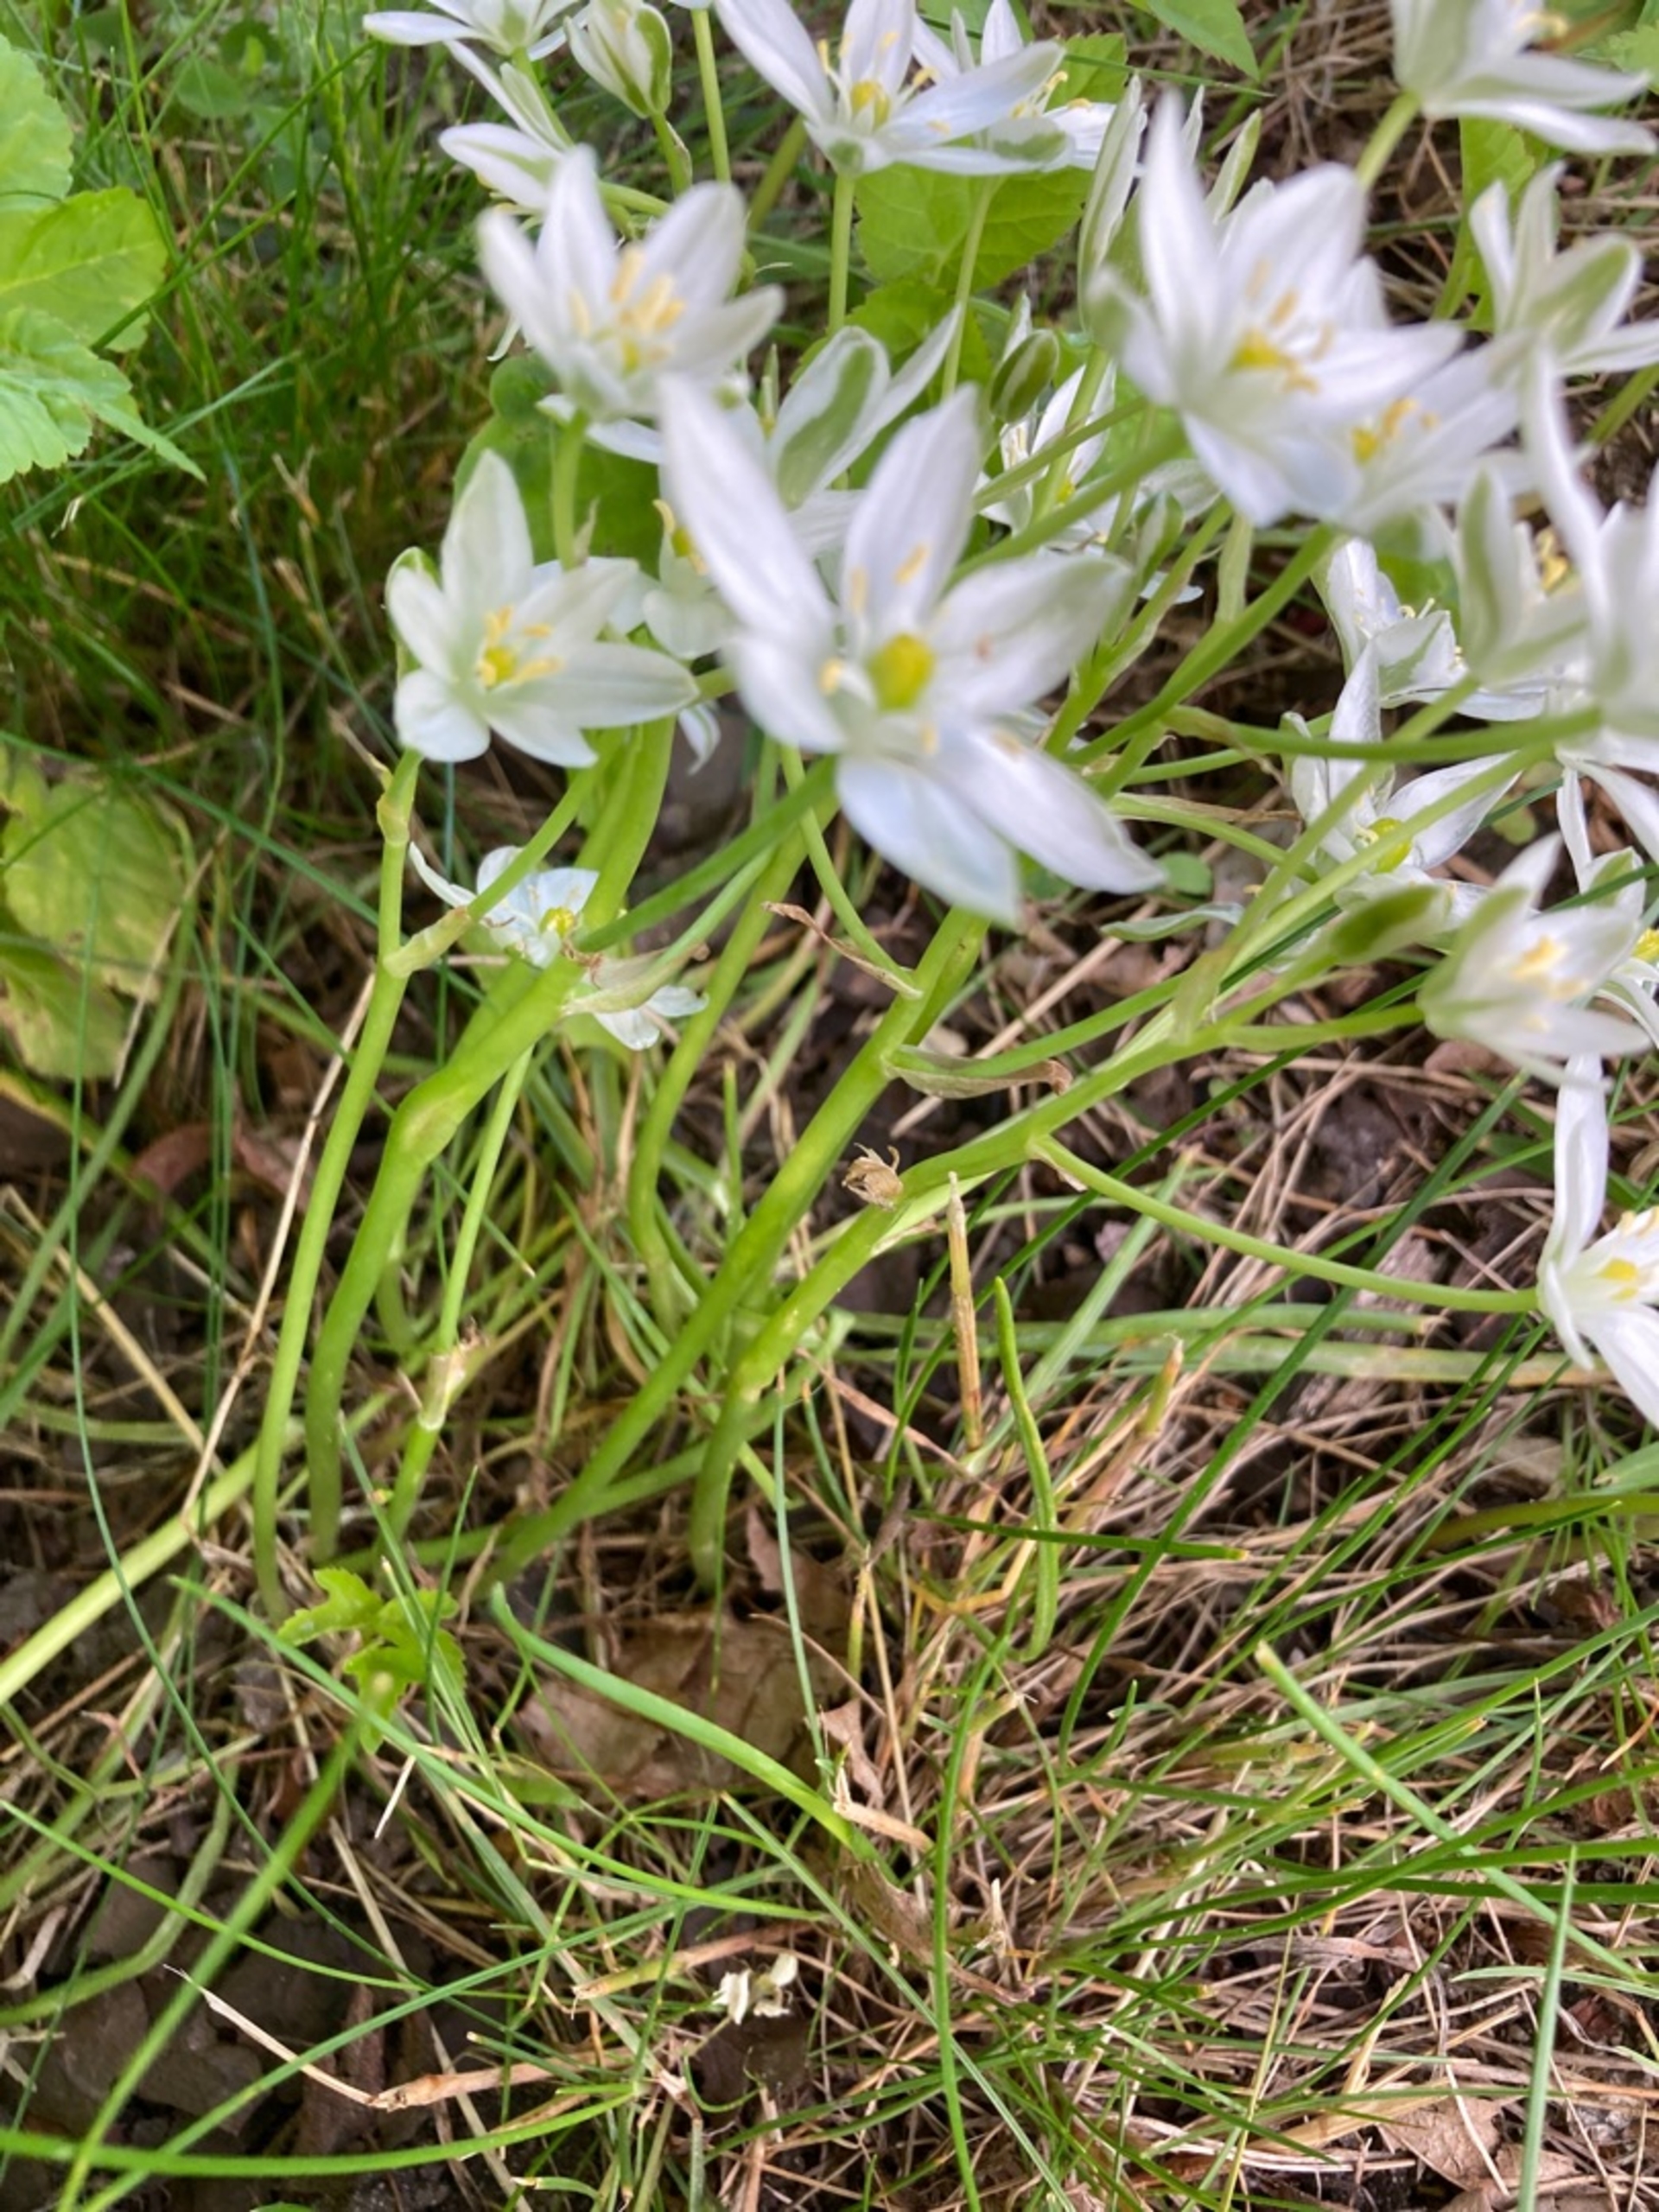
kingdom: Plantae
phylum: Tracheophyta
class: Liliopsida
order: Asparagales
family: Asparagaceae
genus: Ornithogalum
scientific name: Ornithogalum umbellatum
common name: Kost-fuglemælk
